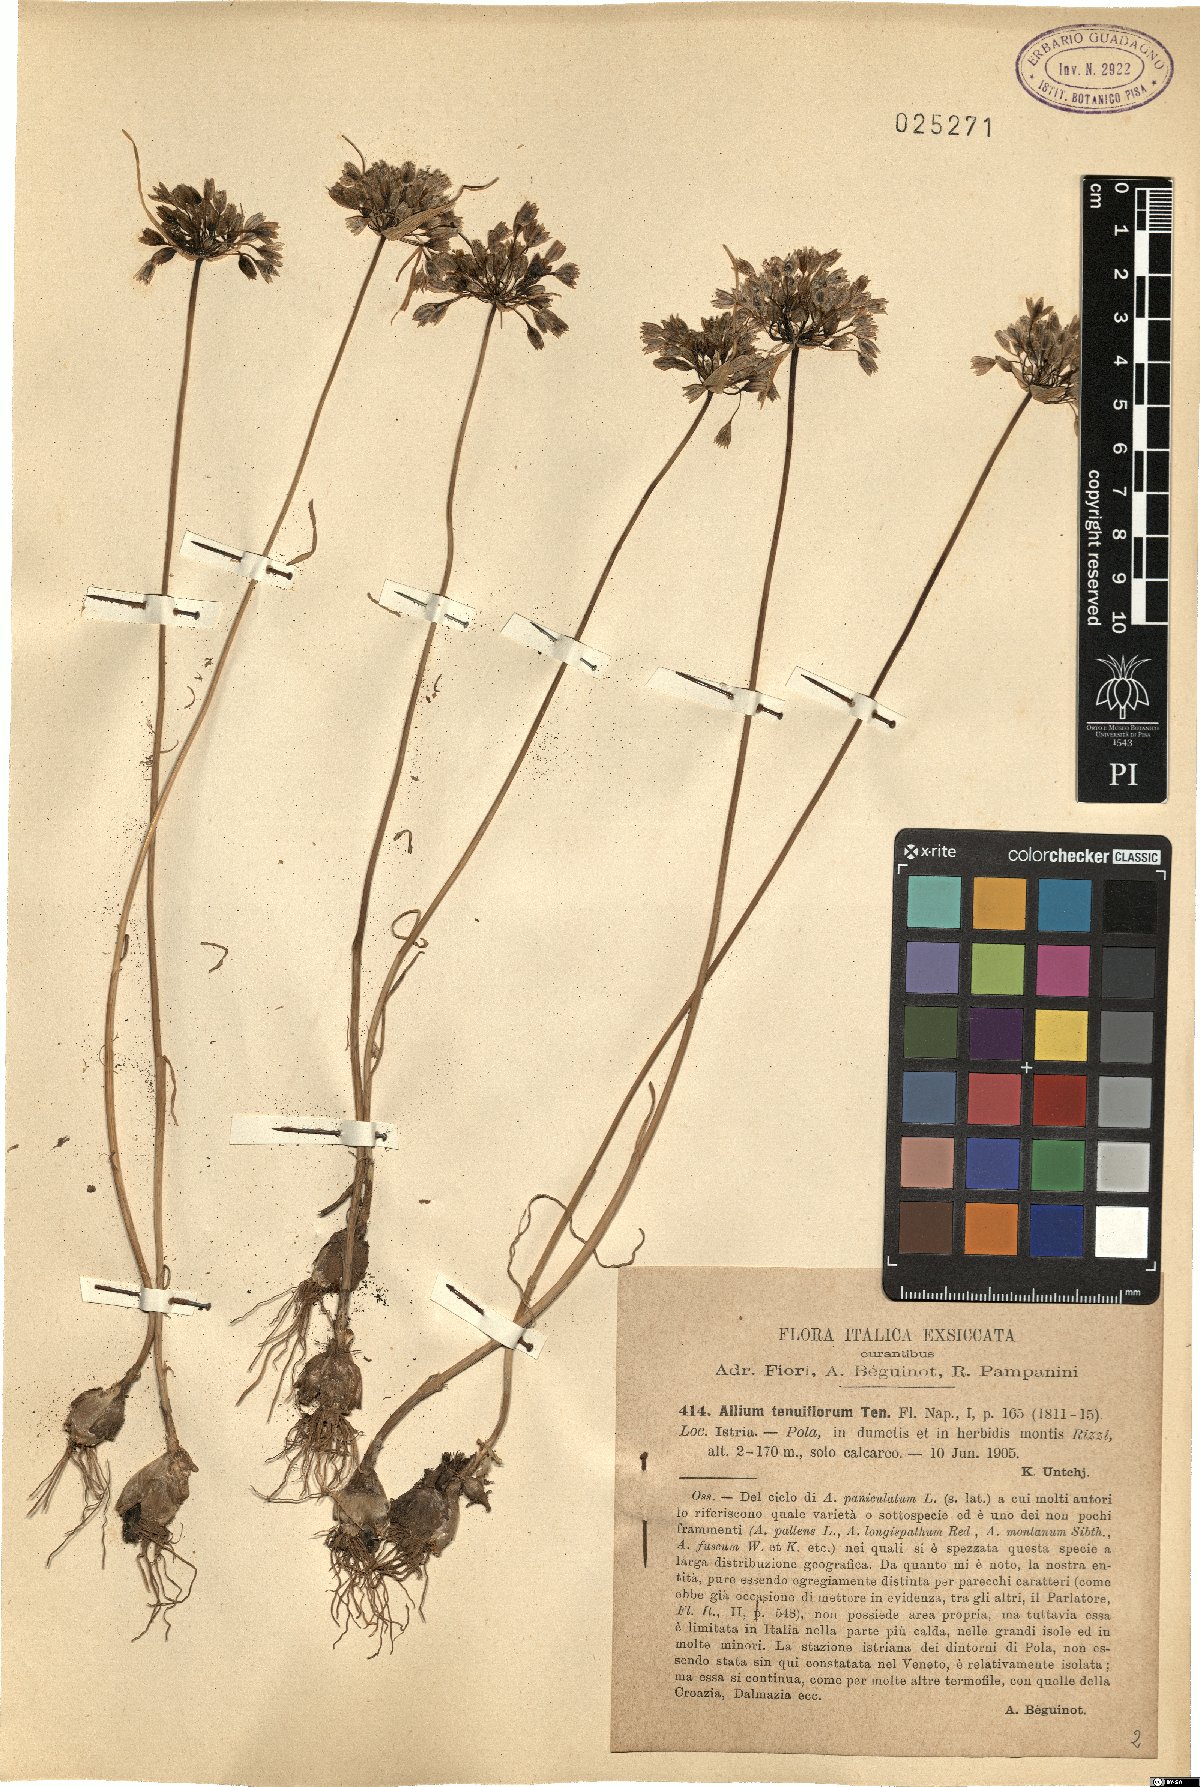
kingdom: Plantae
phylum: Tracheophyta
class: Liliopsida
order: Asparagales
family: Amaryllidaceae
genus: Allium
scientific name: Allium tenuiflorum
